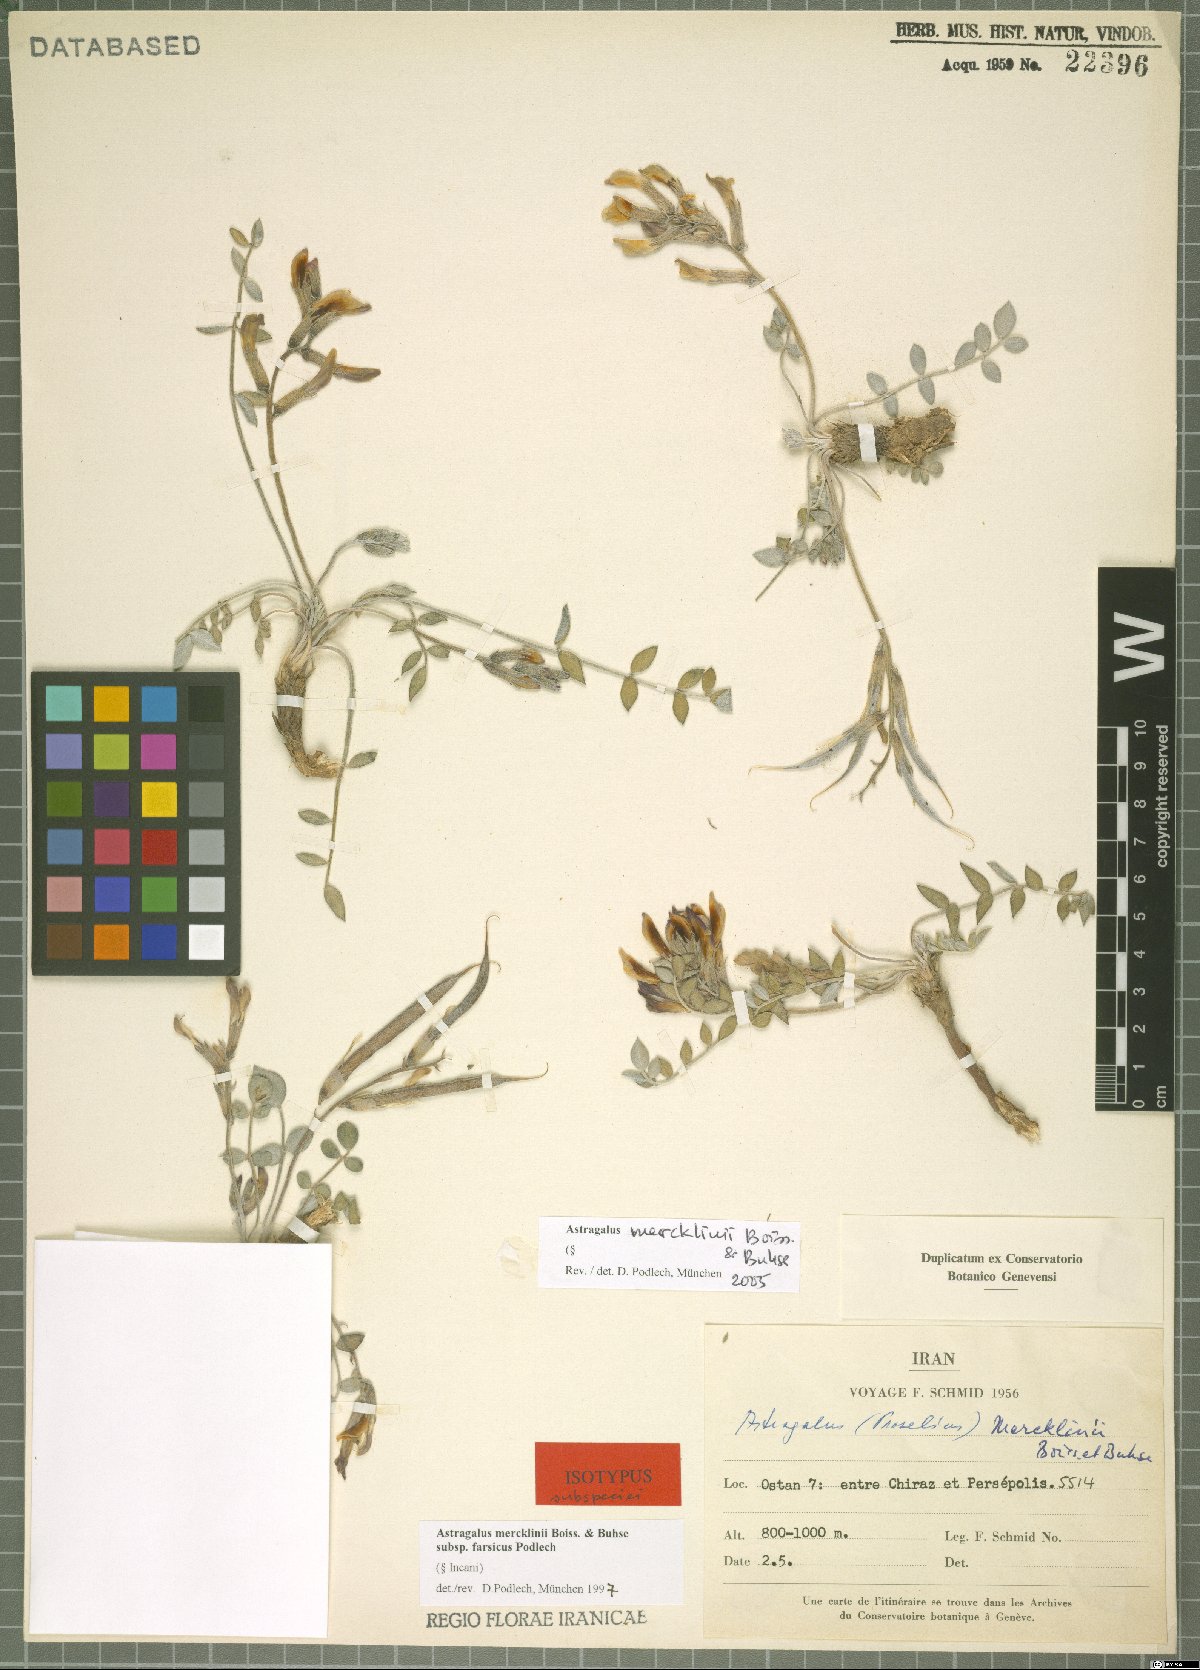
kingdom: Plantae
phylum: Tracheophyta
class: Magnoliopsida
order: Fabales
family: Fabaceae
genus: Astragalus
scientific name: Astragalus mercklinii
